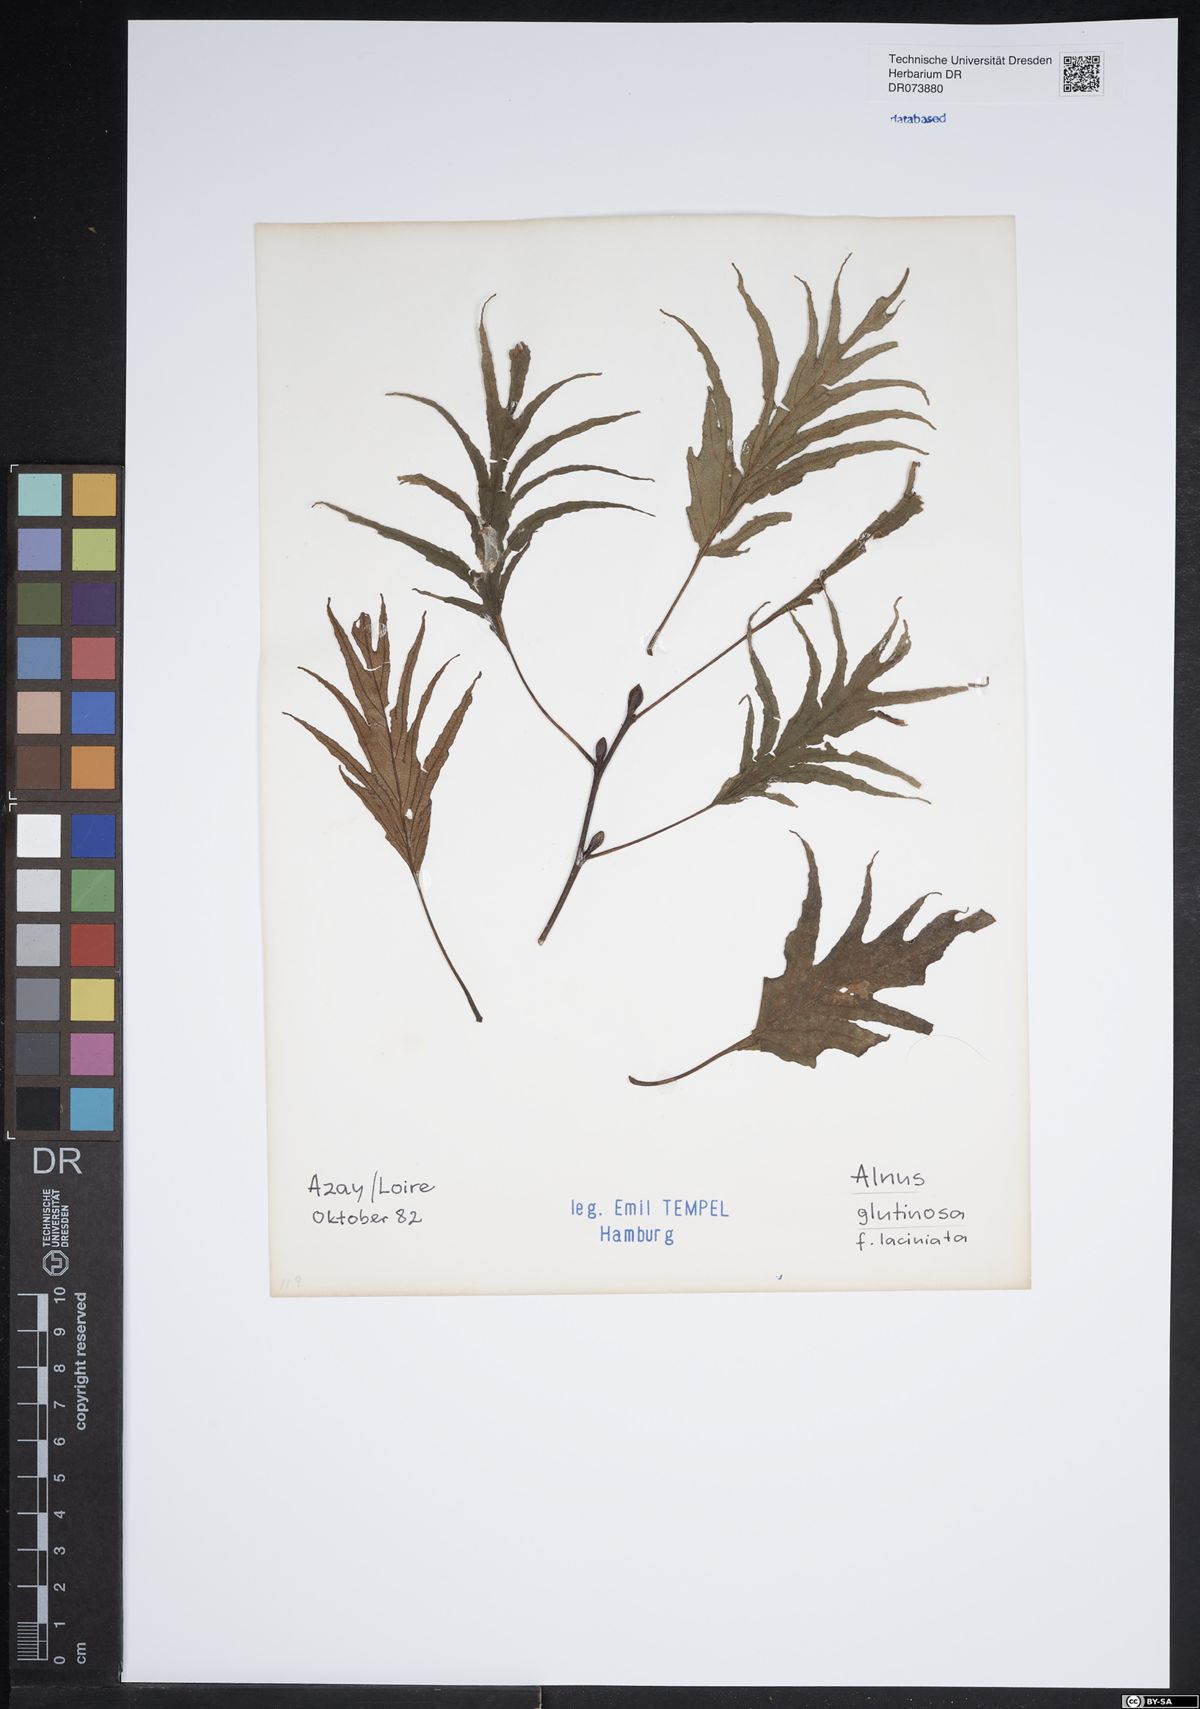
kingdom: Plantae
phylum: Tracheophyta
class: Magnoliopsida
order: Fagales
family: Betulaceae
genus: Alnus
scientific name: Alnus glutinosa
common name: Black alder
